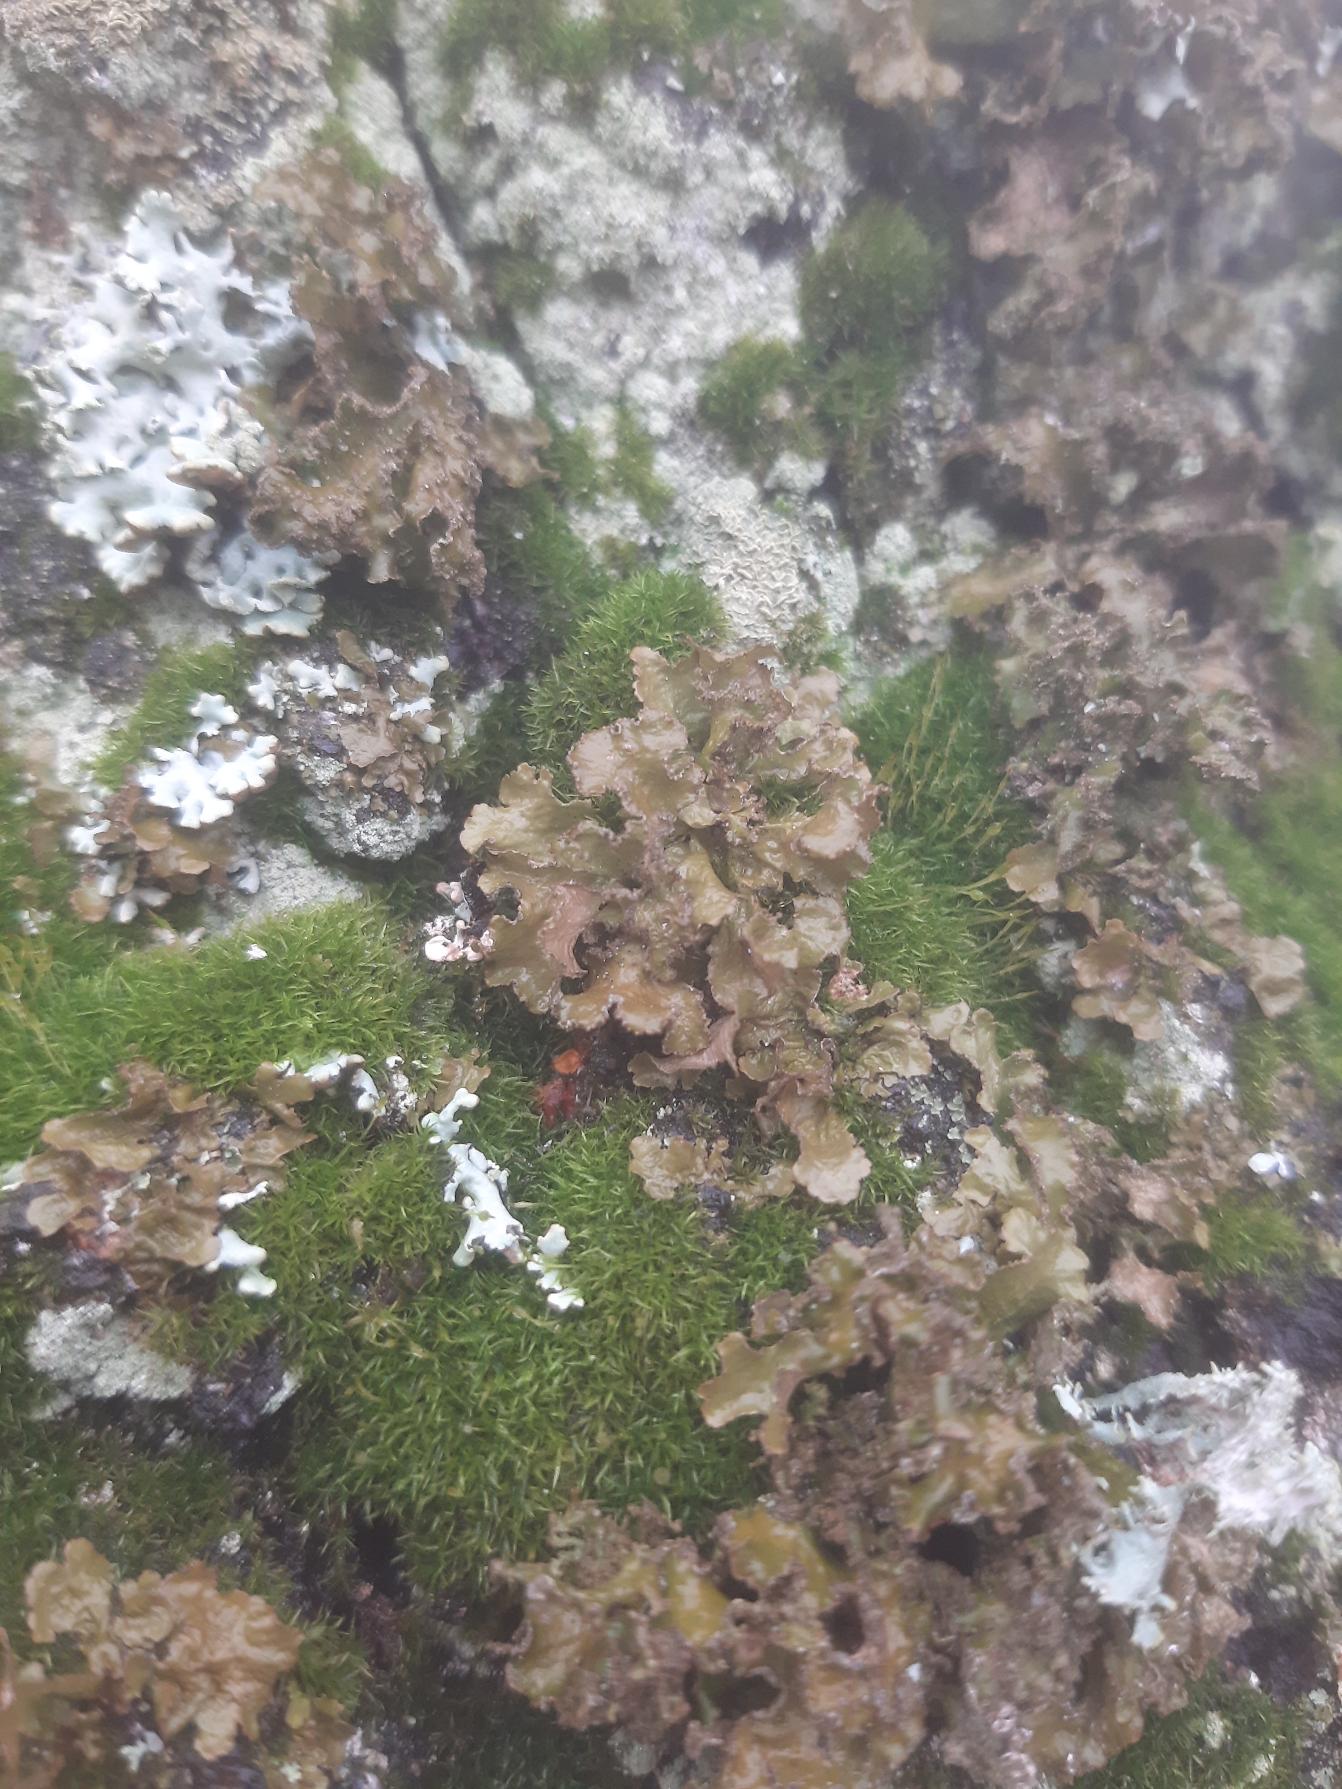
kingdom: Fungi
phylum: Ascomycota
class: Lecanoromycetes
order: Lecanorales
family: Parmeliaceae
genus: Nephromopsis
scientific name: Nephromopsis chlorophylla
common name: Olivenbrun kruslav
